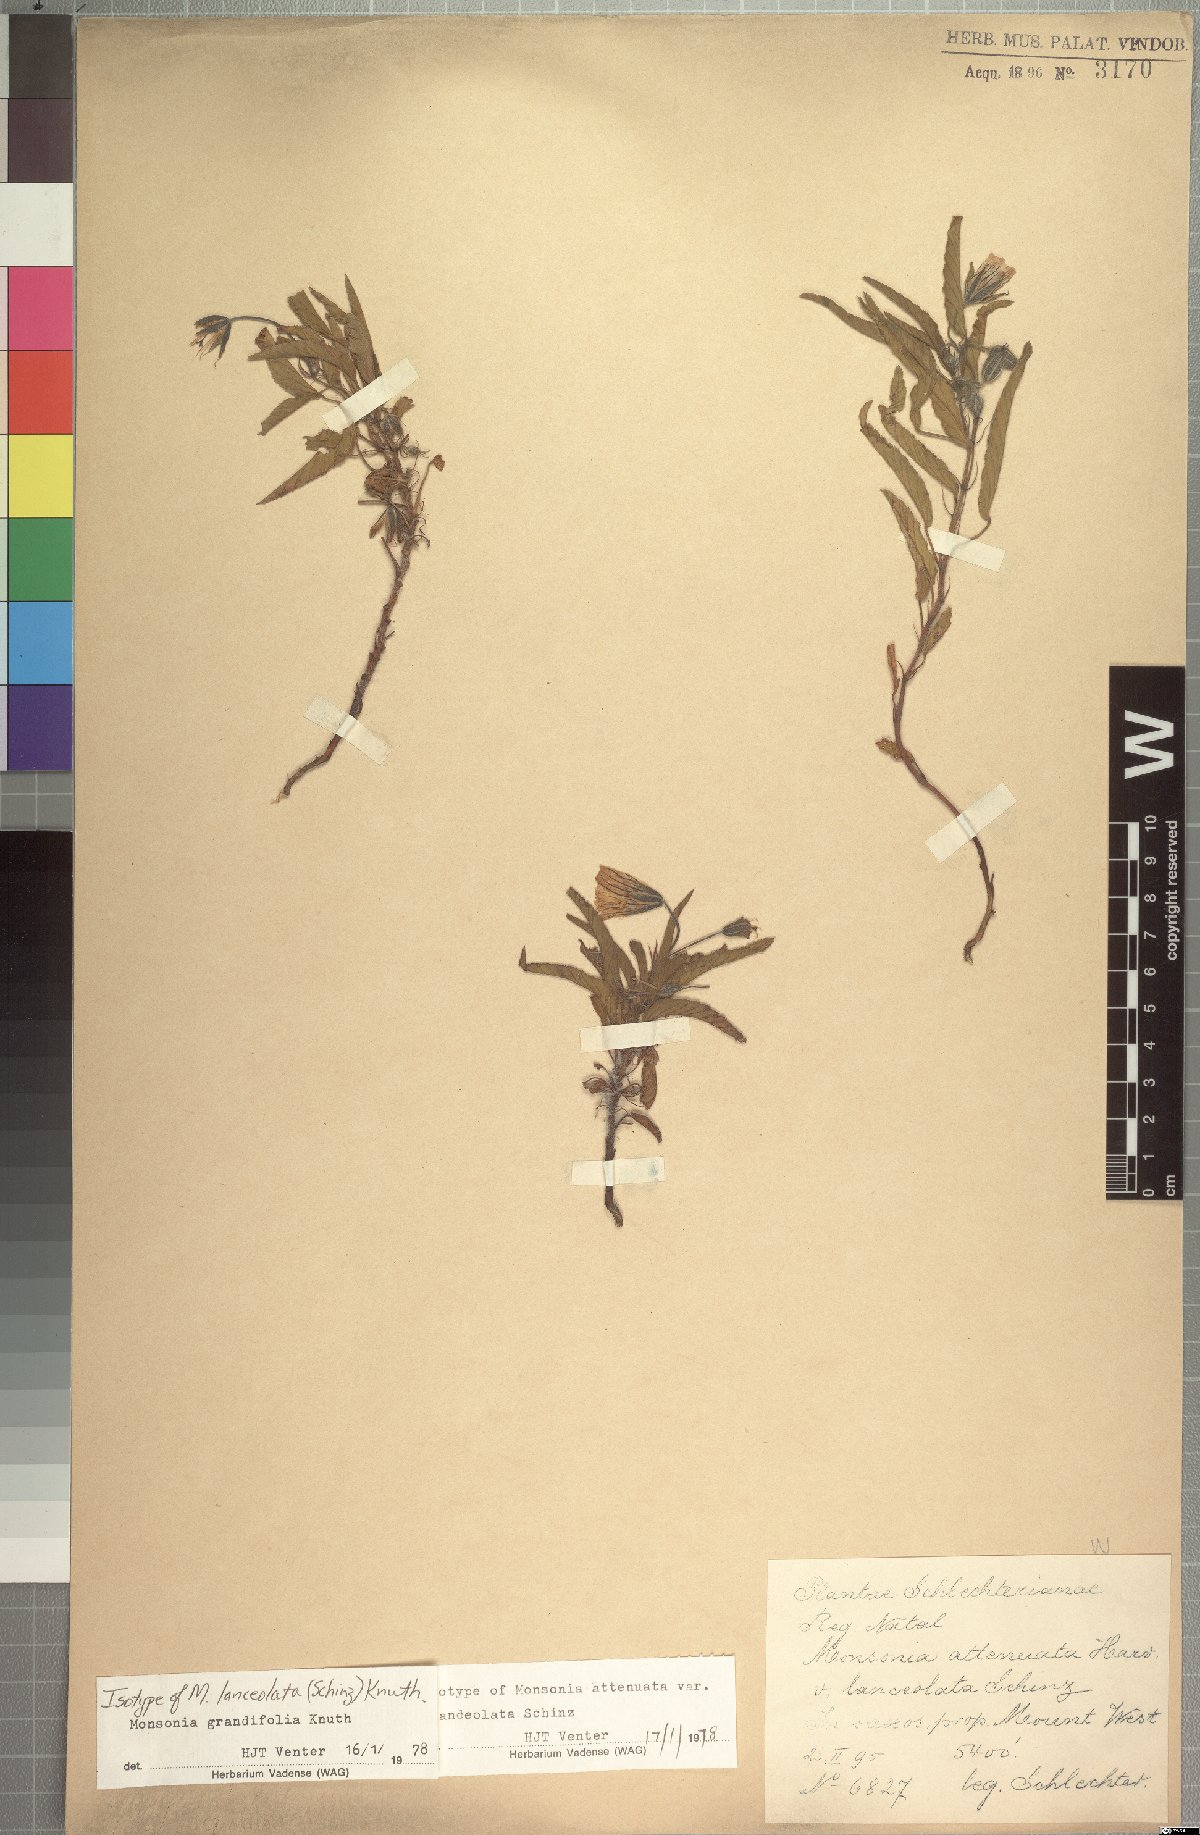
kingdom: Plantae
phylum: Tracheophyta
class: Magnoliopsida
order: Geraniales
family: Geraniaceae
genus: Monsonia
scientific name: Monsonia grandifolia
